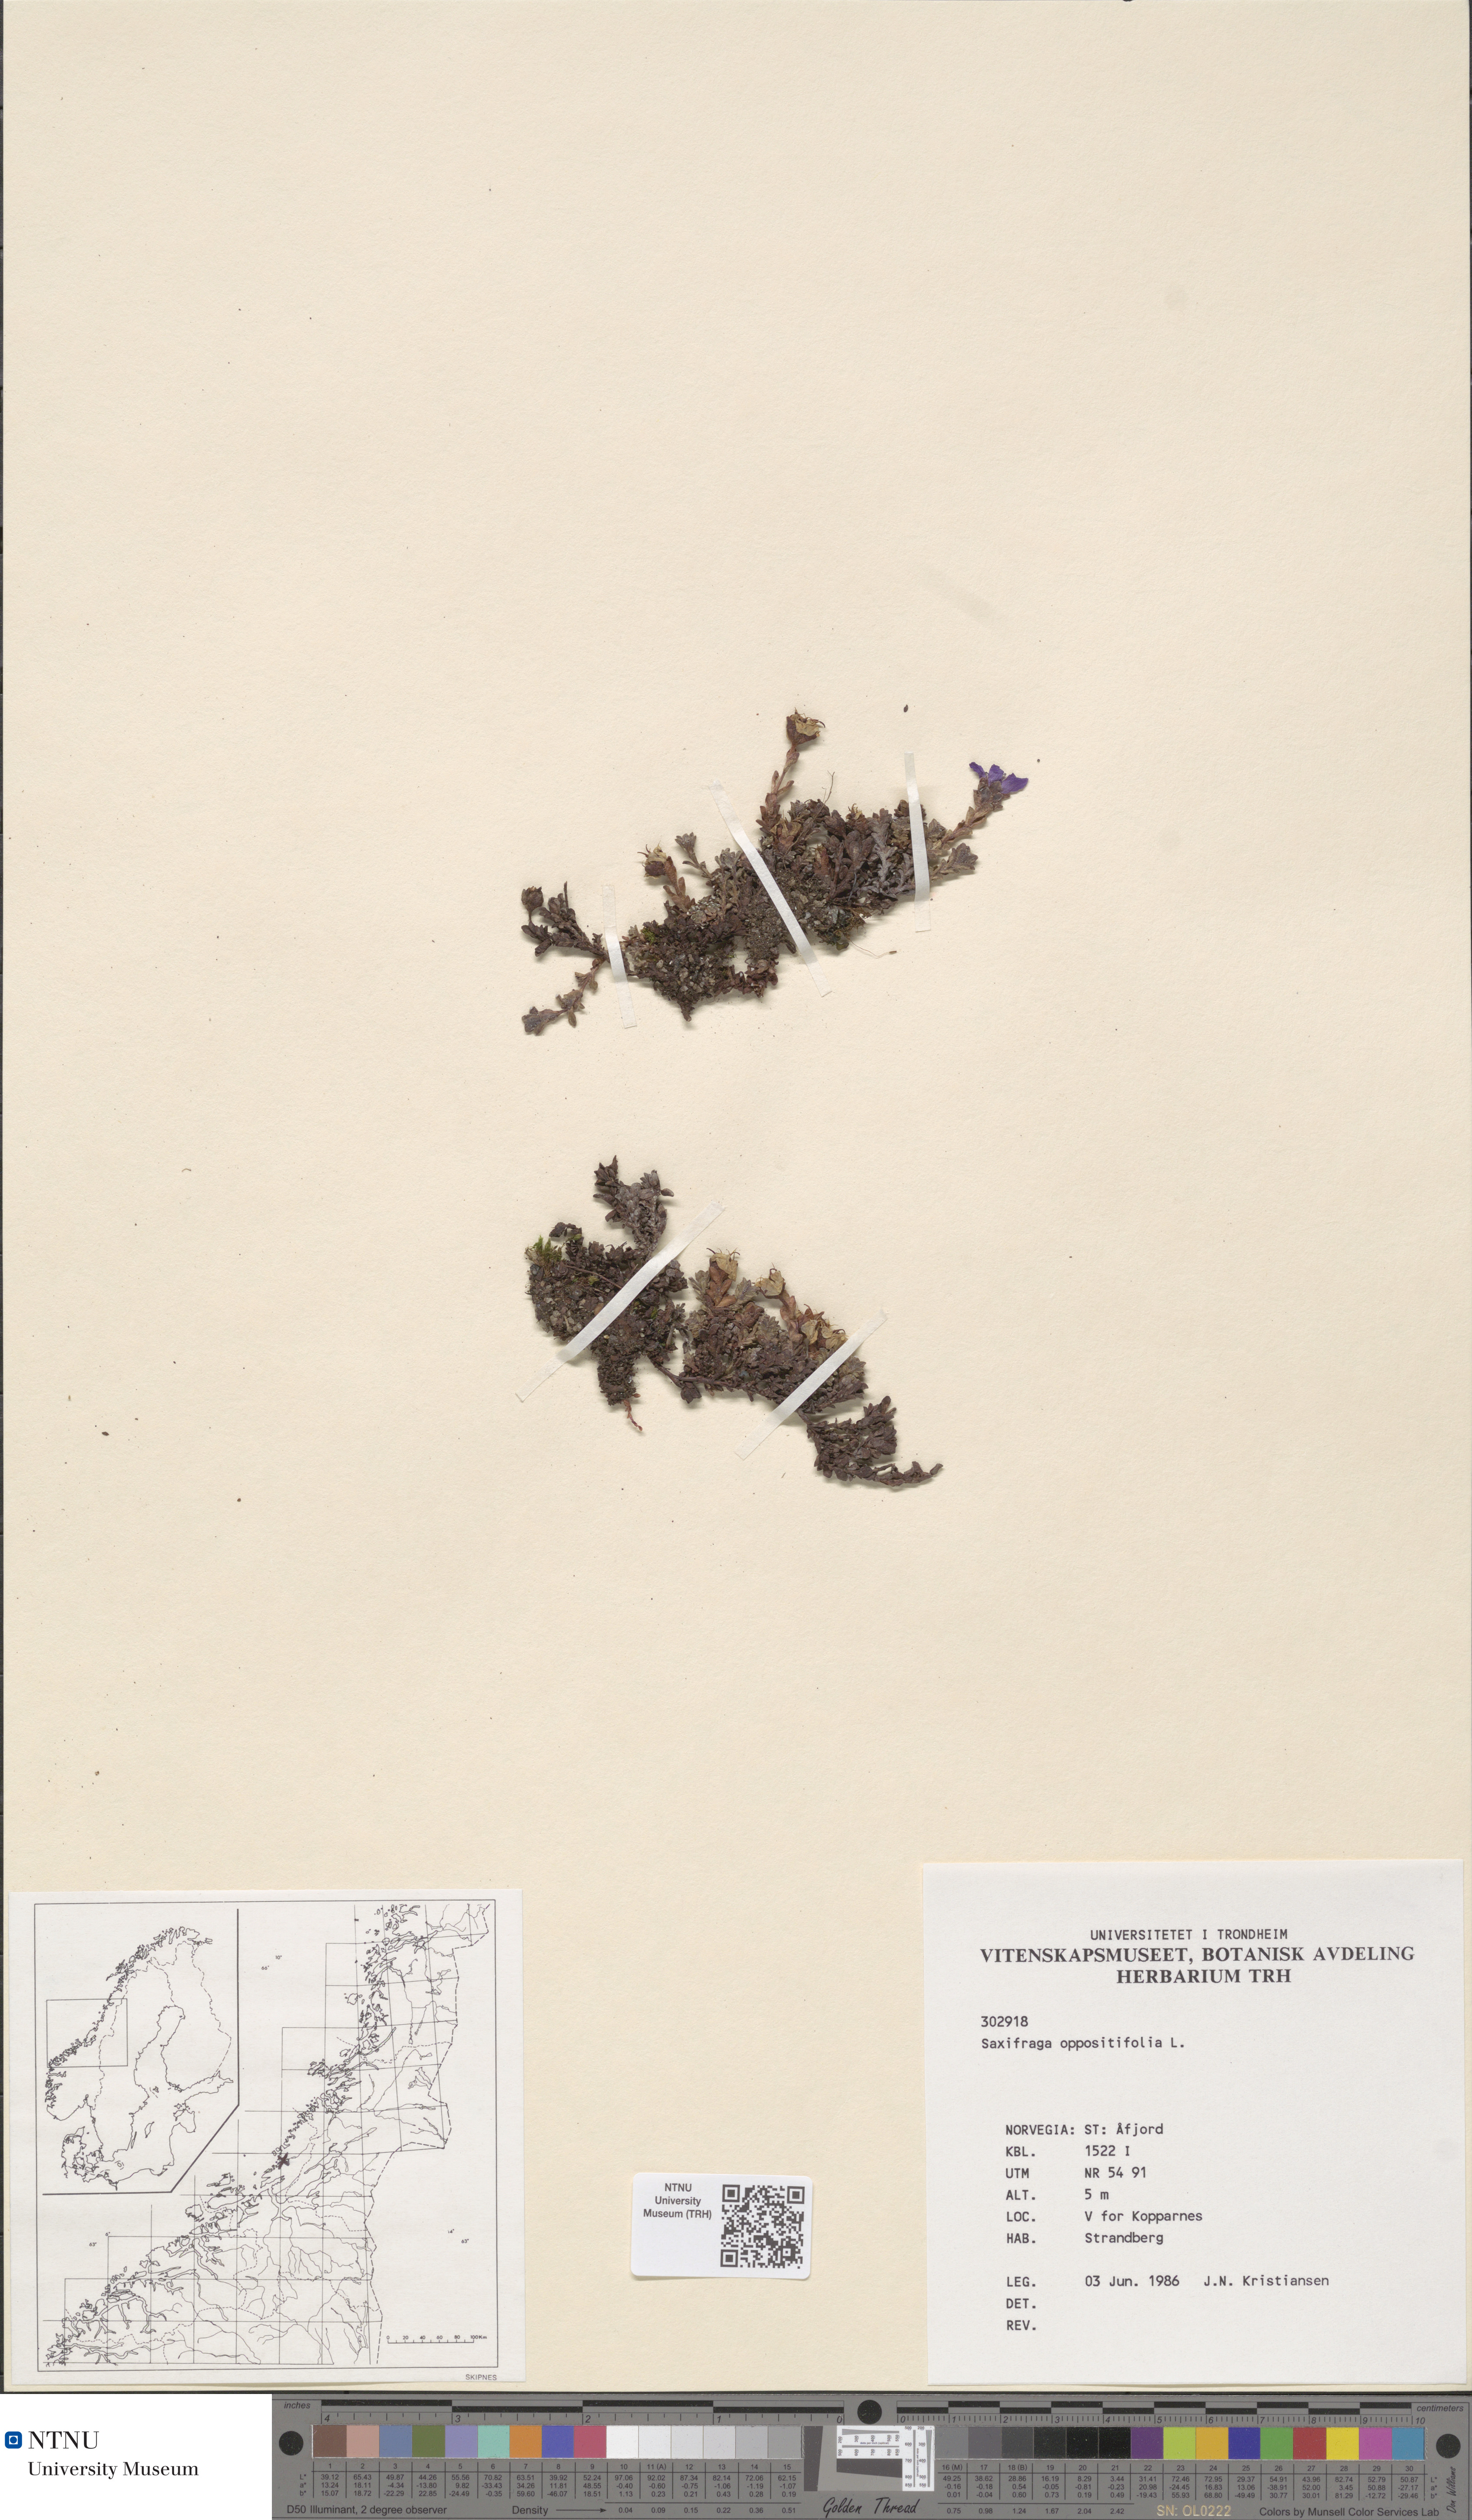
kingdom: Plantae
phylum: Tracheophyta
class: Magnoliopsida
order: Saxifragales
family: Saxifragaceae
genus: Saxifraga
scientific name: Saxifraga oppositifolia
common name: Purple saxifrage
